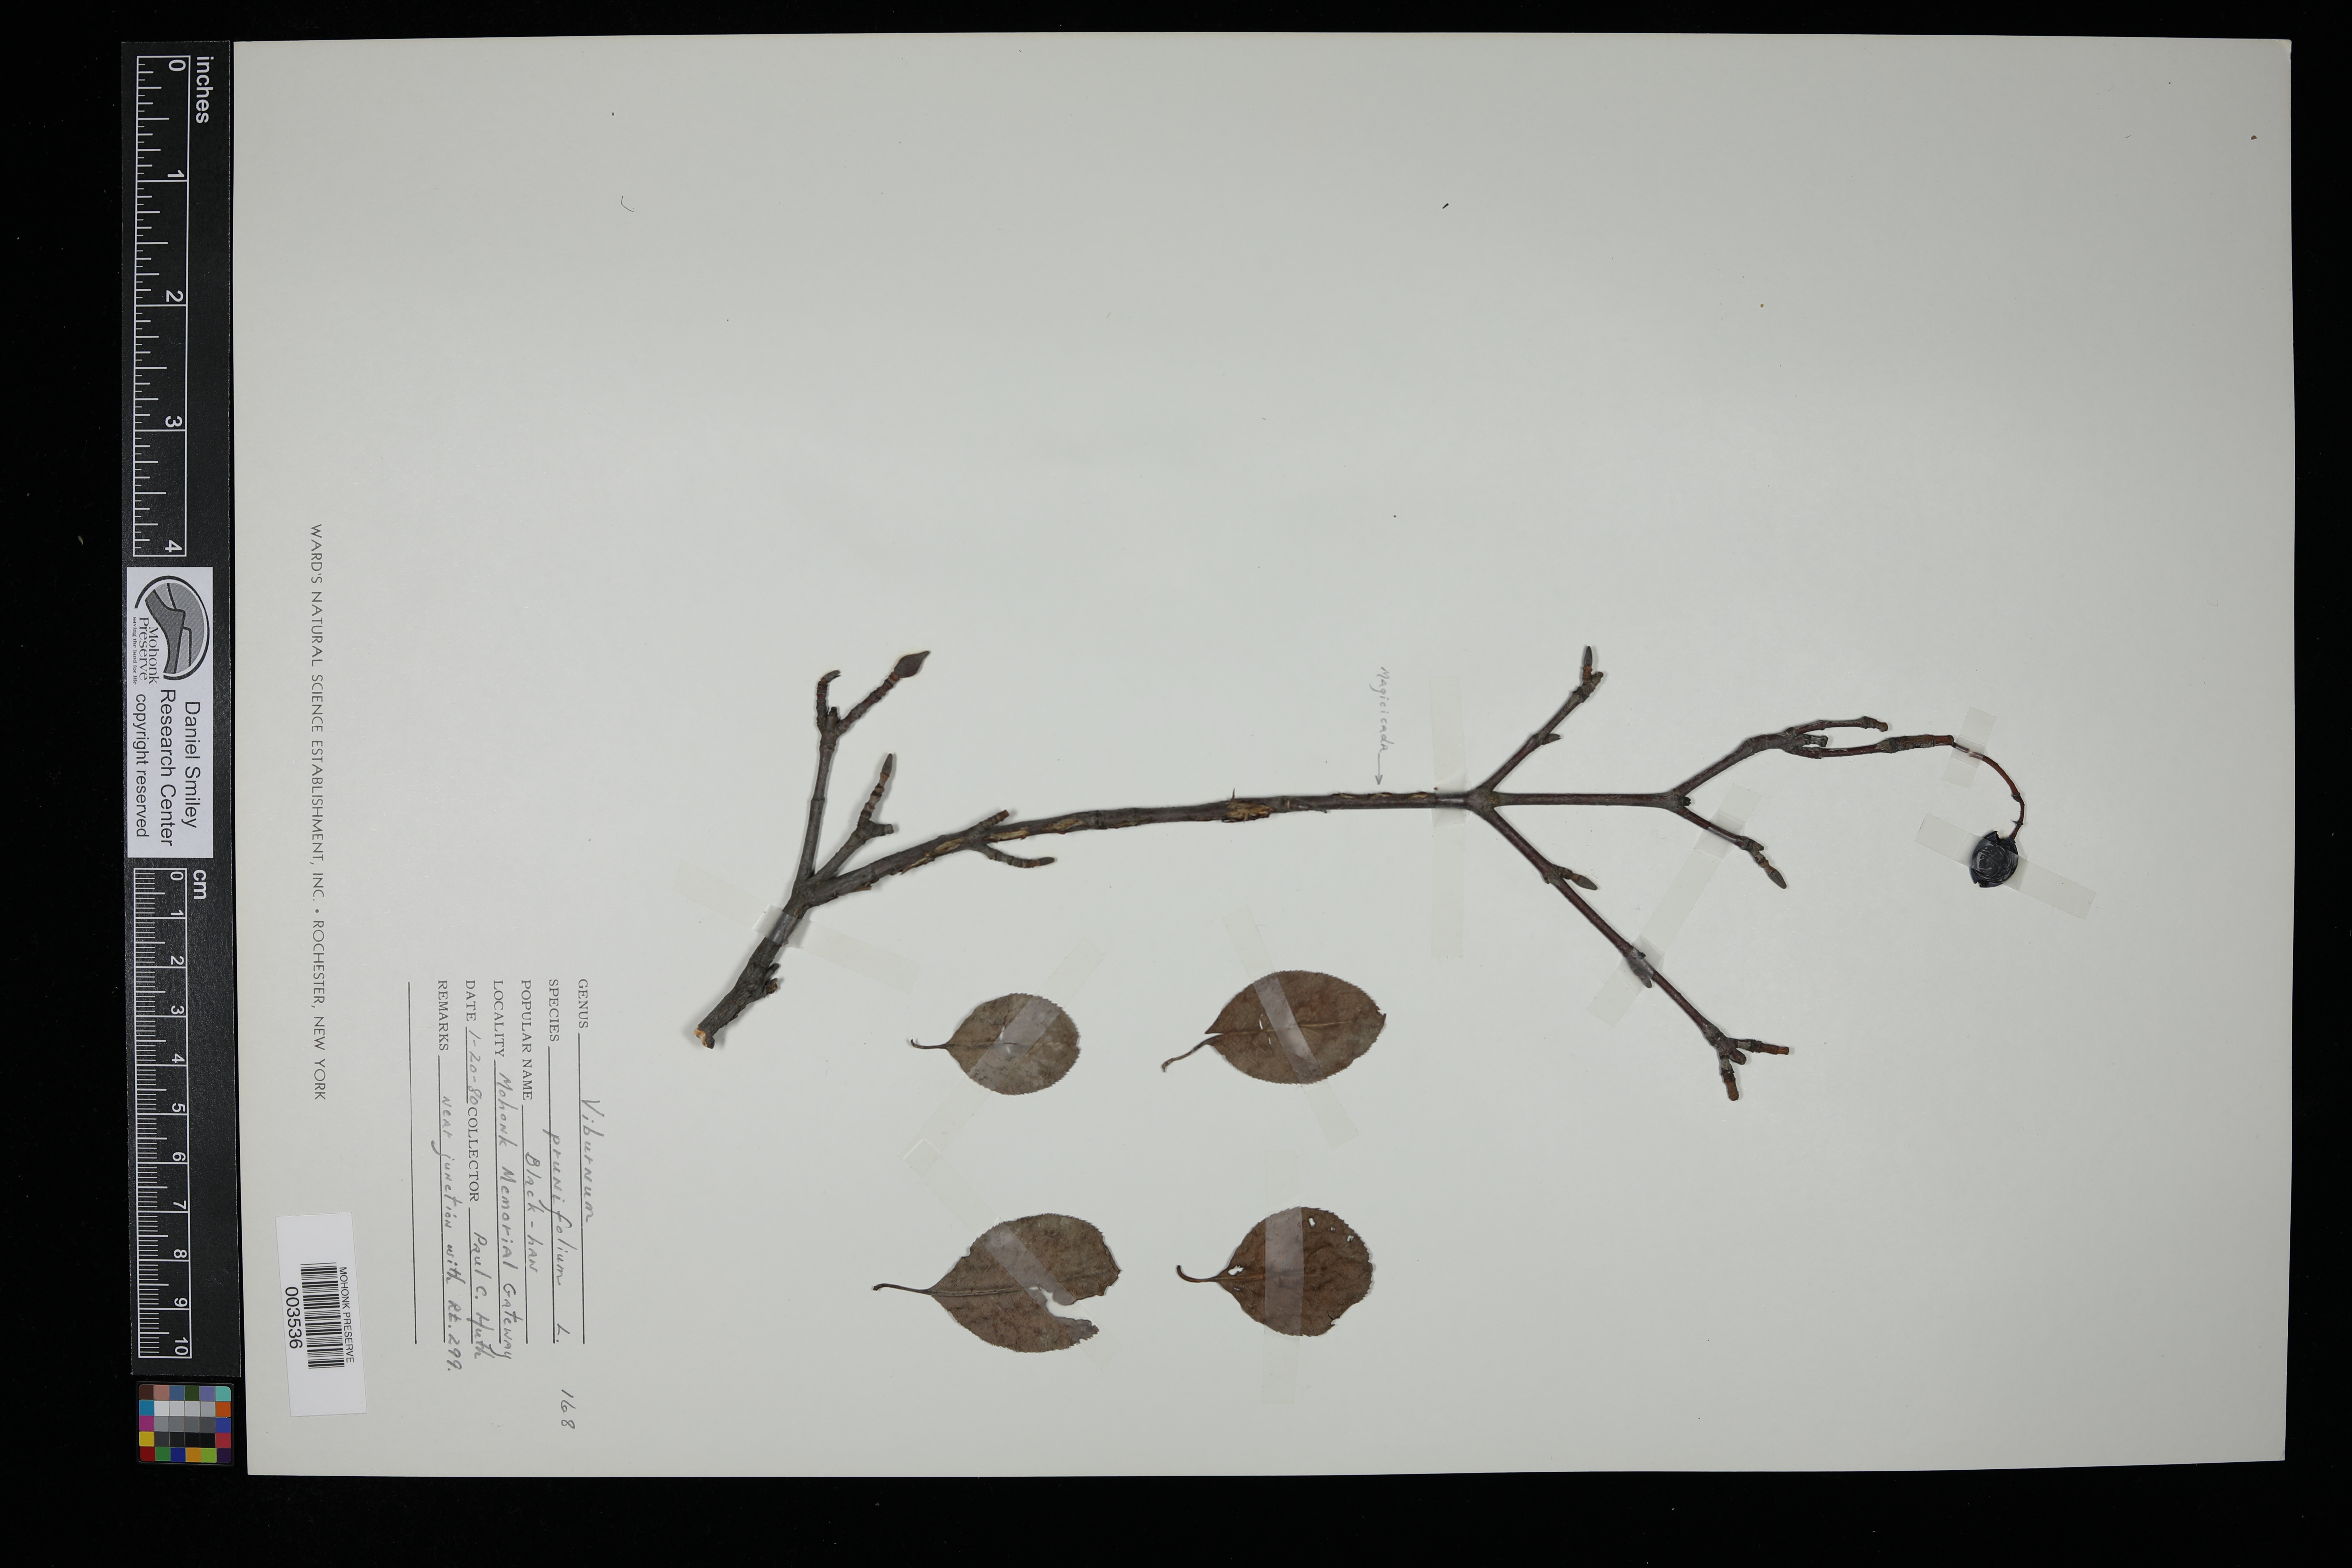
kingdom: Plantae
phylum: Tracheophyta
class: Magnoliopsida
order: Dipsacales
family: Viburnaceae
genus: Viburnum
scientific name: Viburnum prunifolium
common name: Black haw
